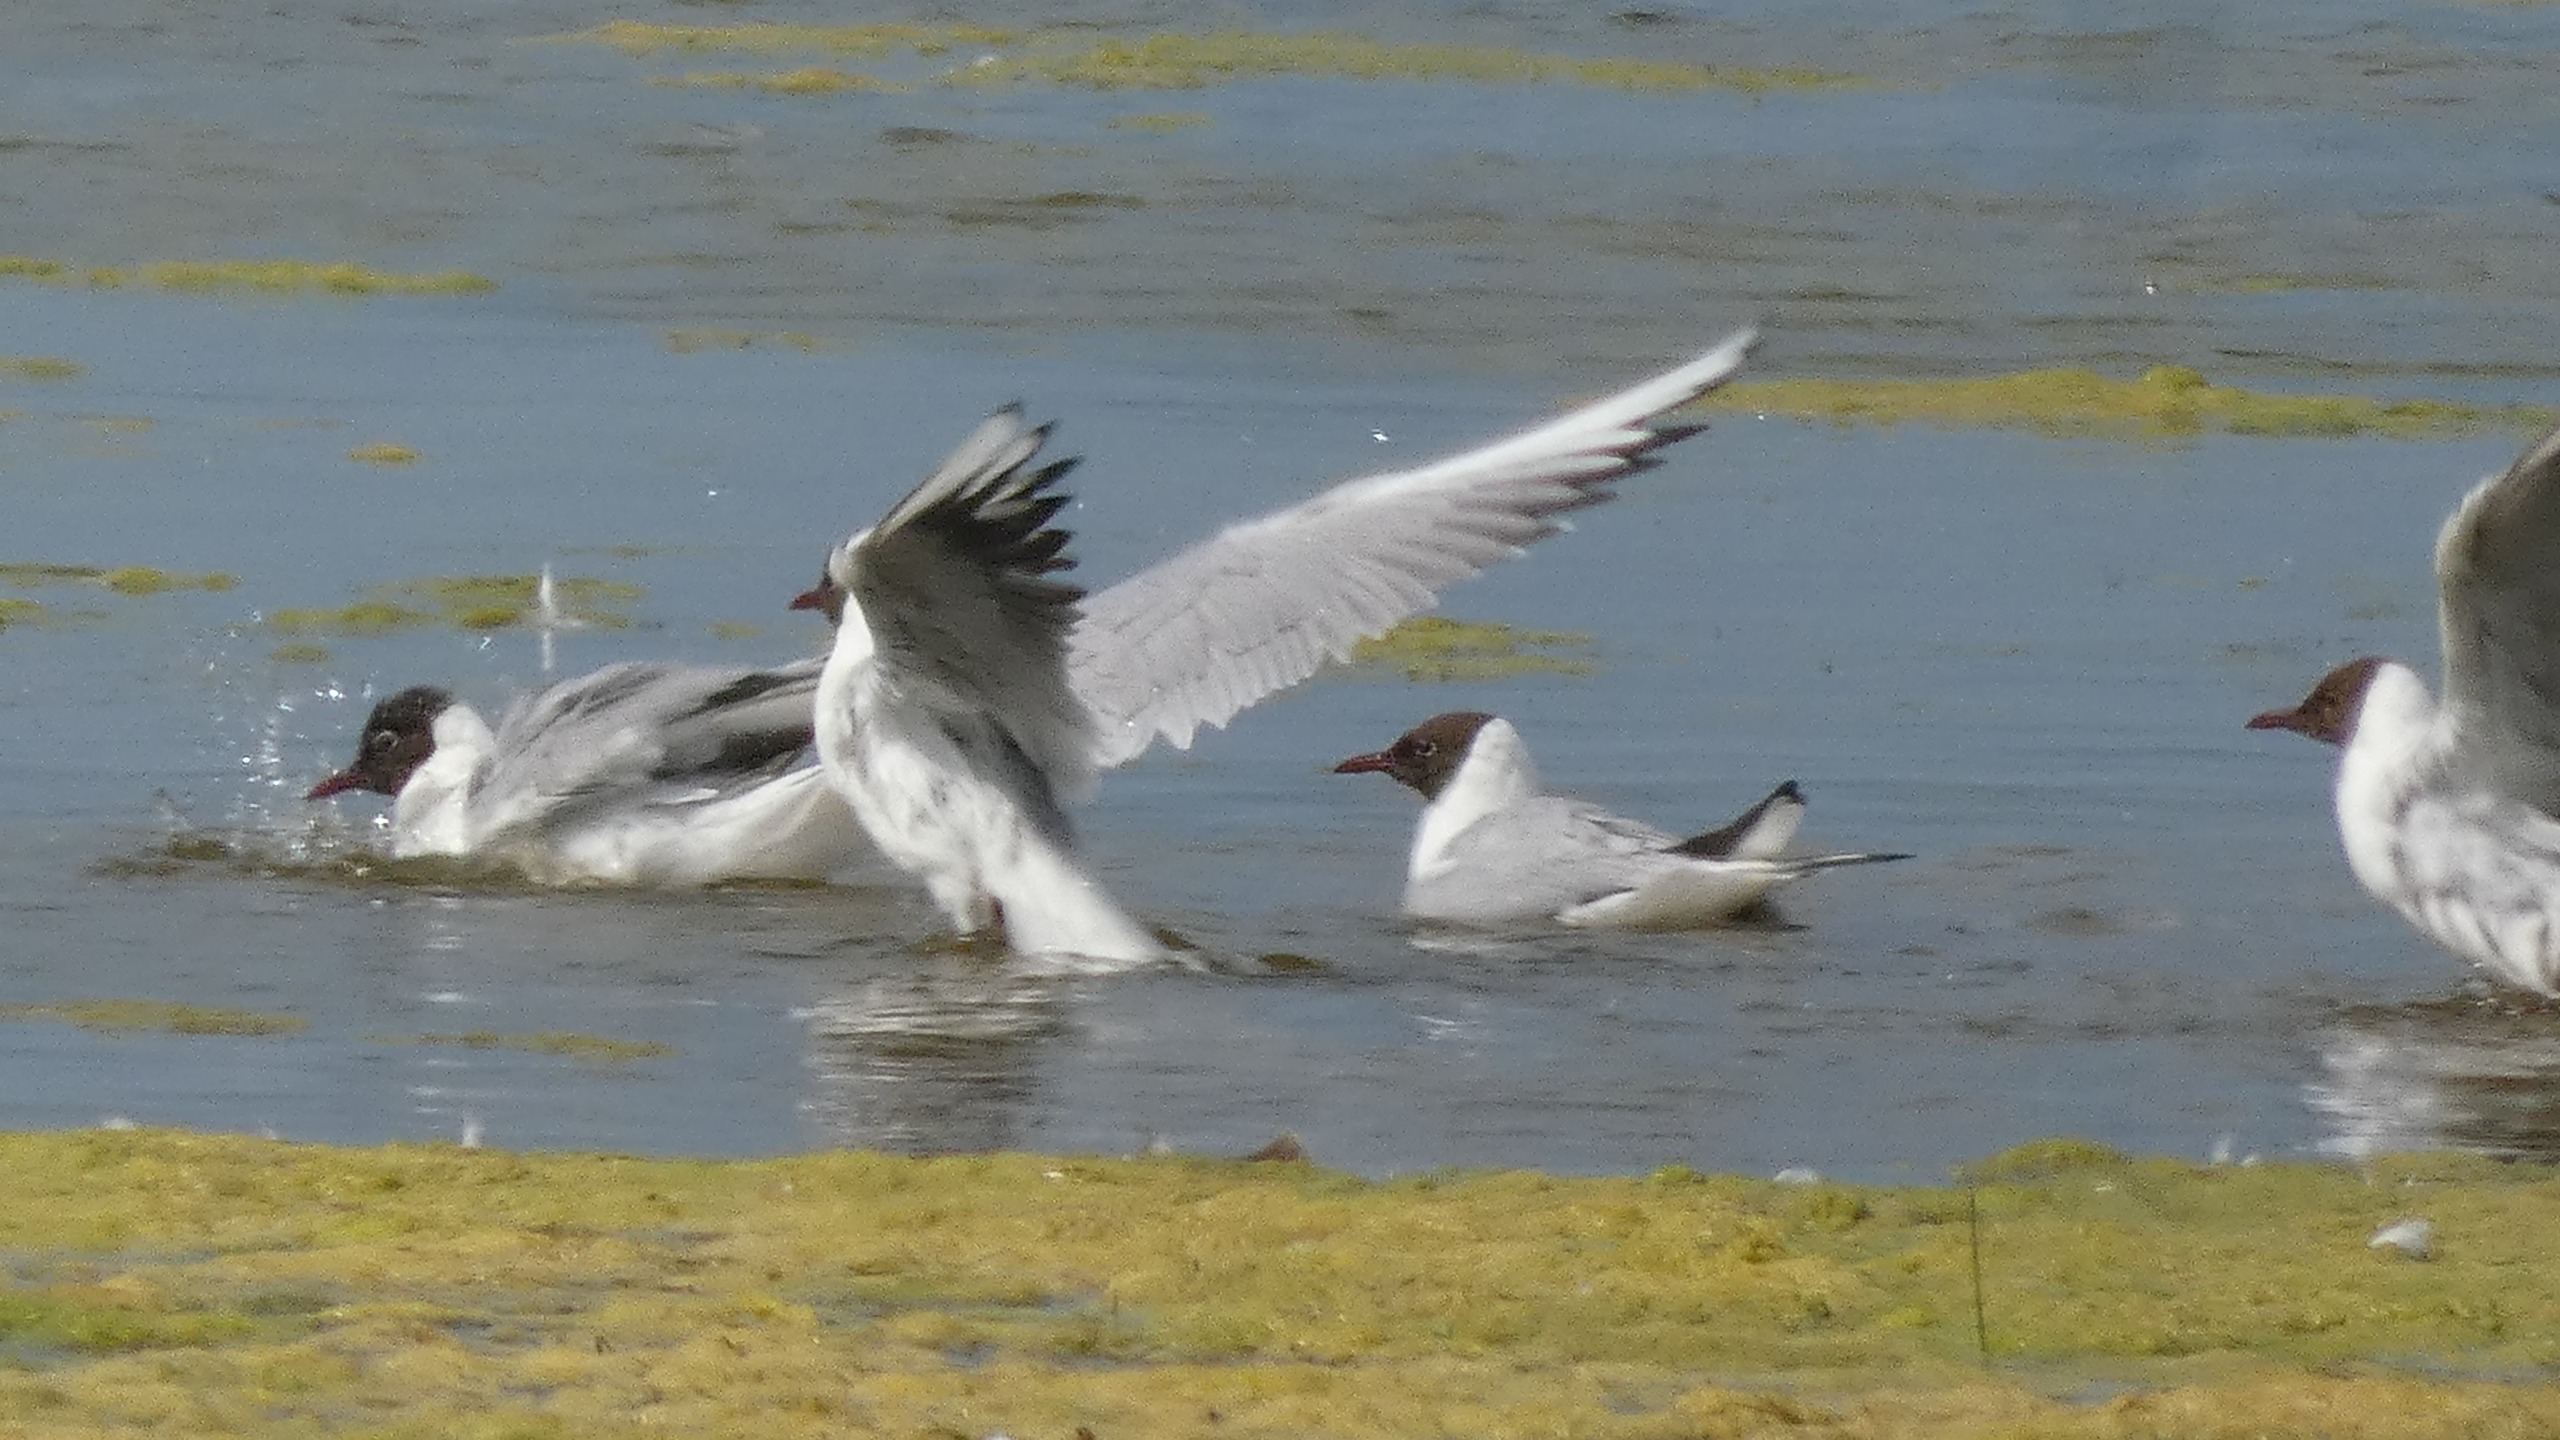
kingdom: Animalia
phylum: Chordata
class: Aves
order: Charadriiformes
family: Laridae
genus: Chroicocephalus
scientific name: Chroicocephalus ridibundus
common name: Hættemåge
